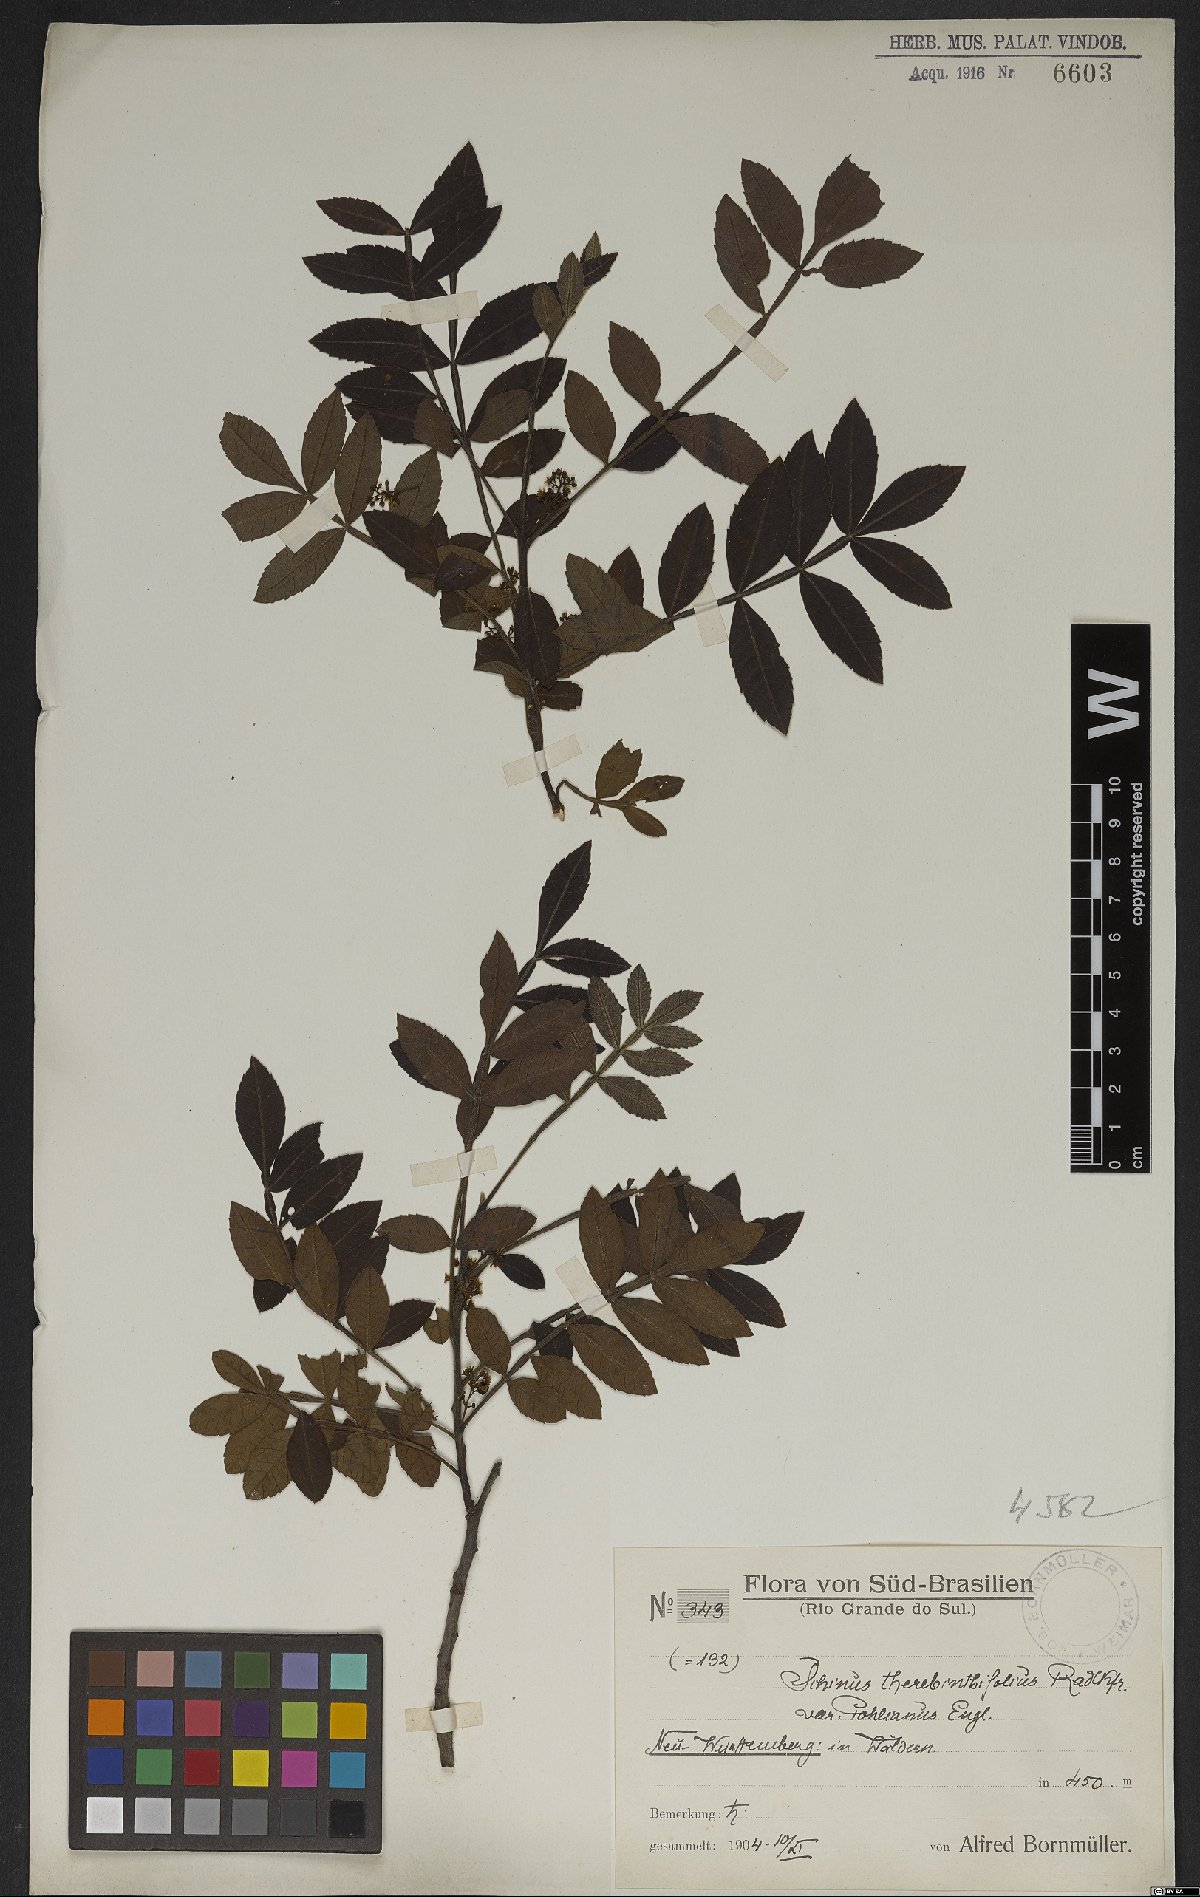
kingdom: Plantae
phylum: Tracheophyta
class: Magnoliopsida
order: Sapindales
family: Anacardiaceae
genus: Schinus
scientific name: Schinus terebinthifolia
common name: Brazilian peppertree
